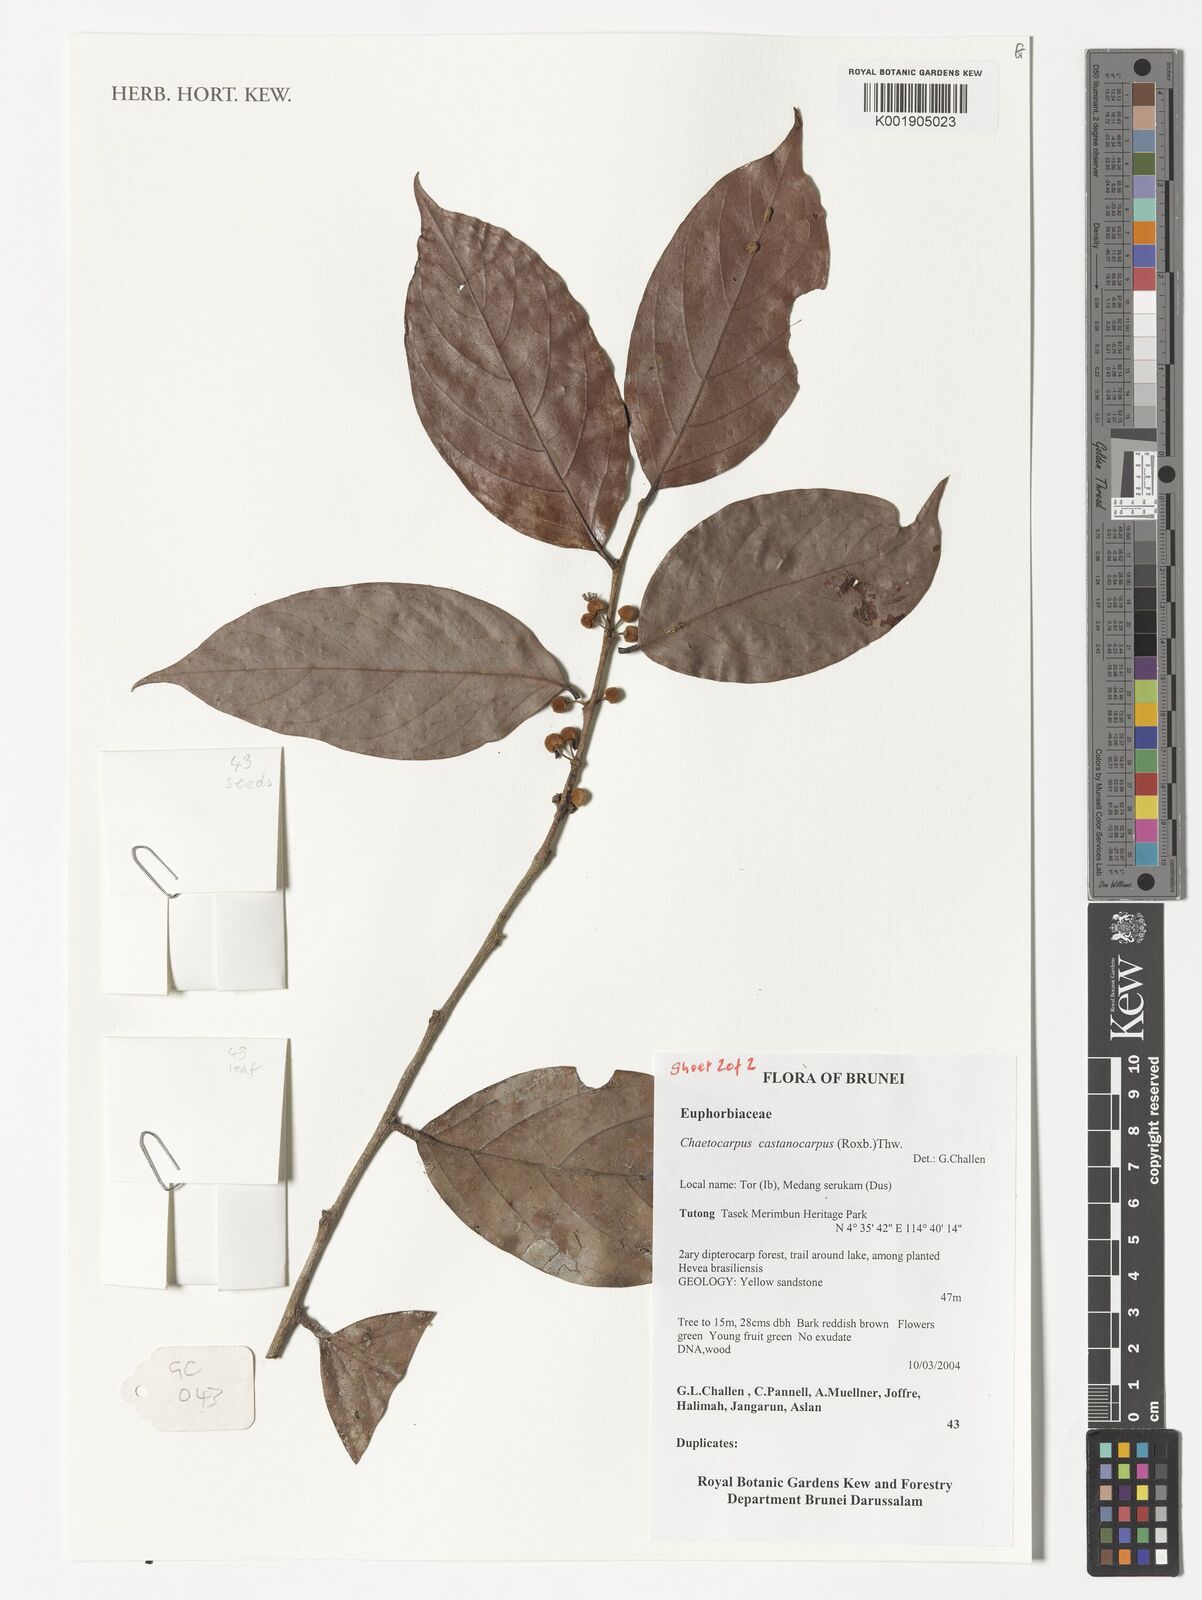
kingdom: Plantae
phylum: Tracheophyta
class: Magnoliopsida
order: Malpighiales
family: Peraceae
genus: Chaetocarpus
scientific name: Chaetocarpus castanocarpus
